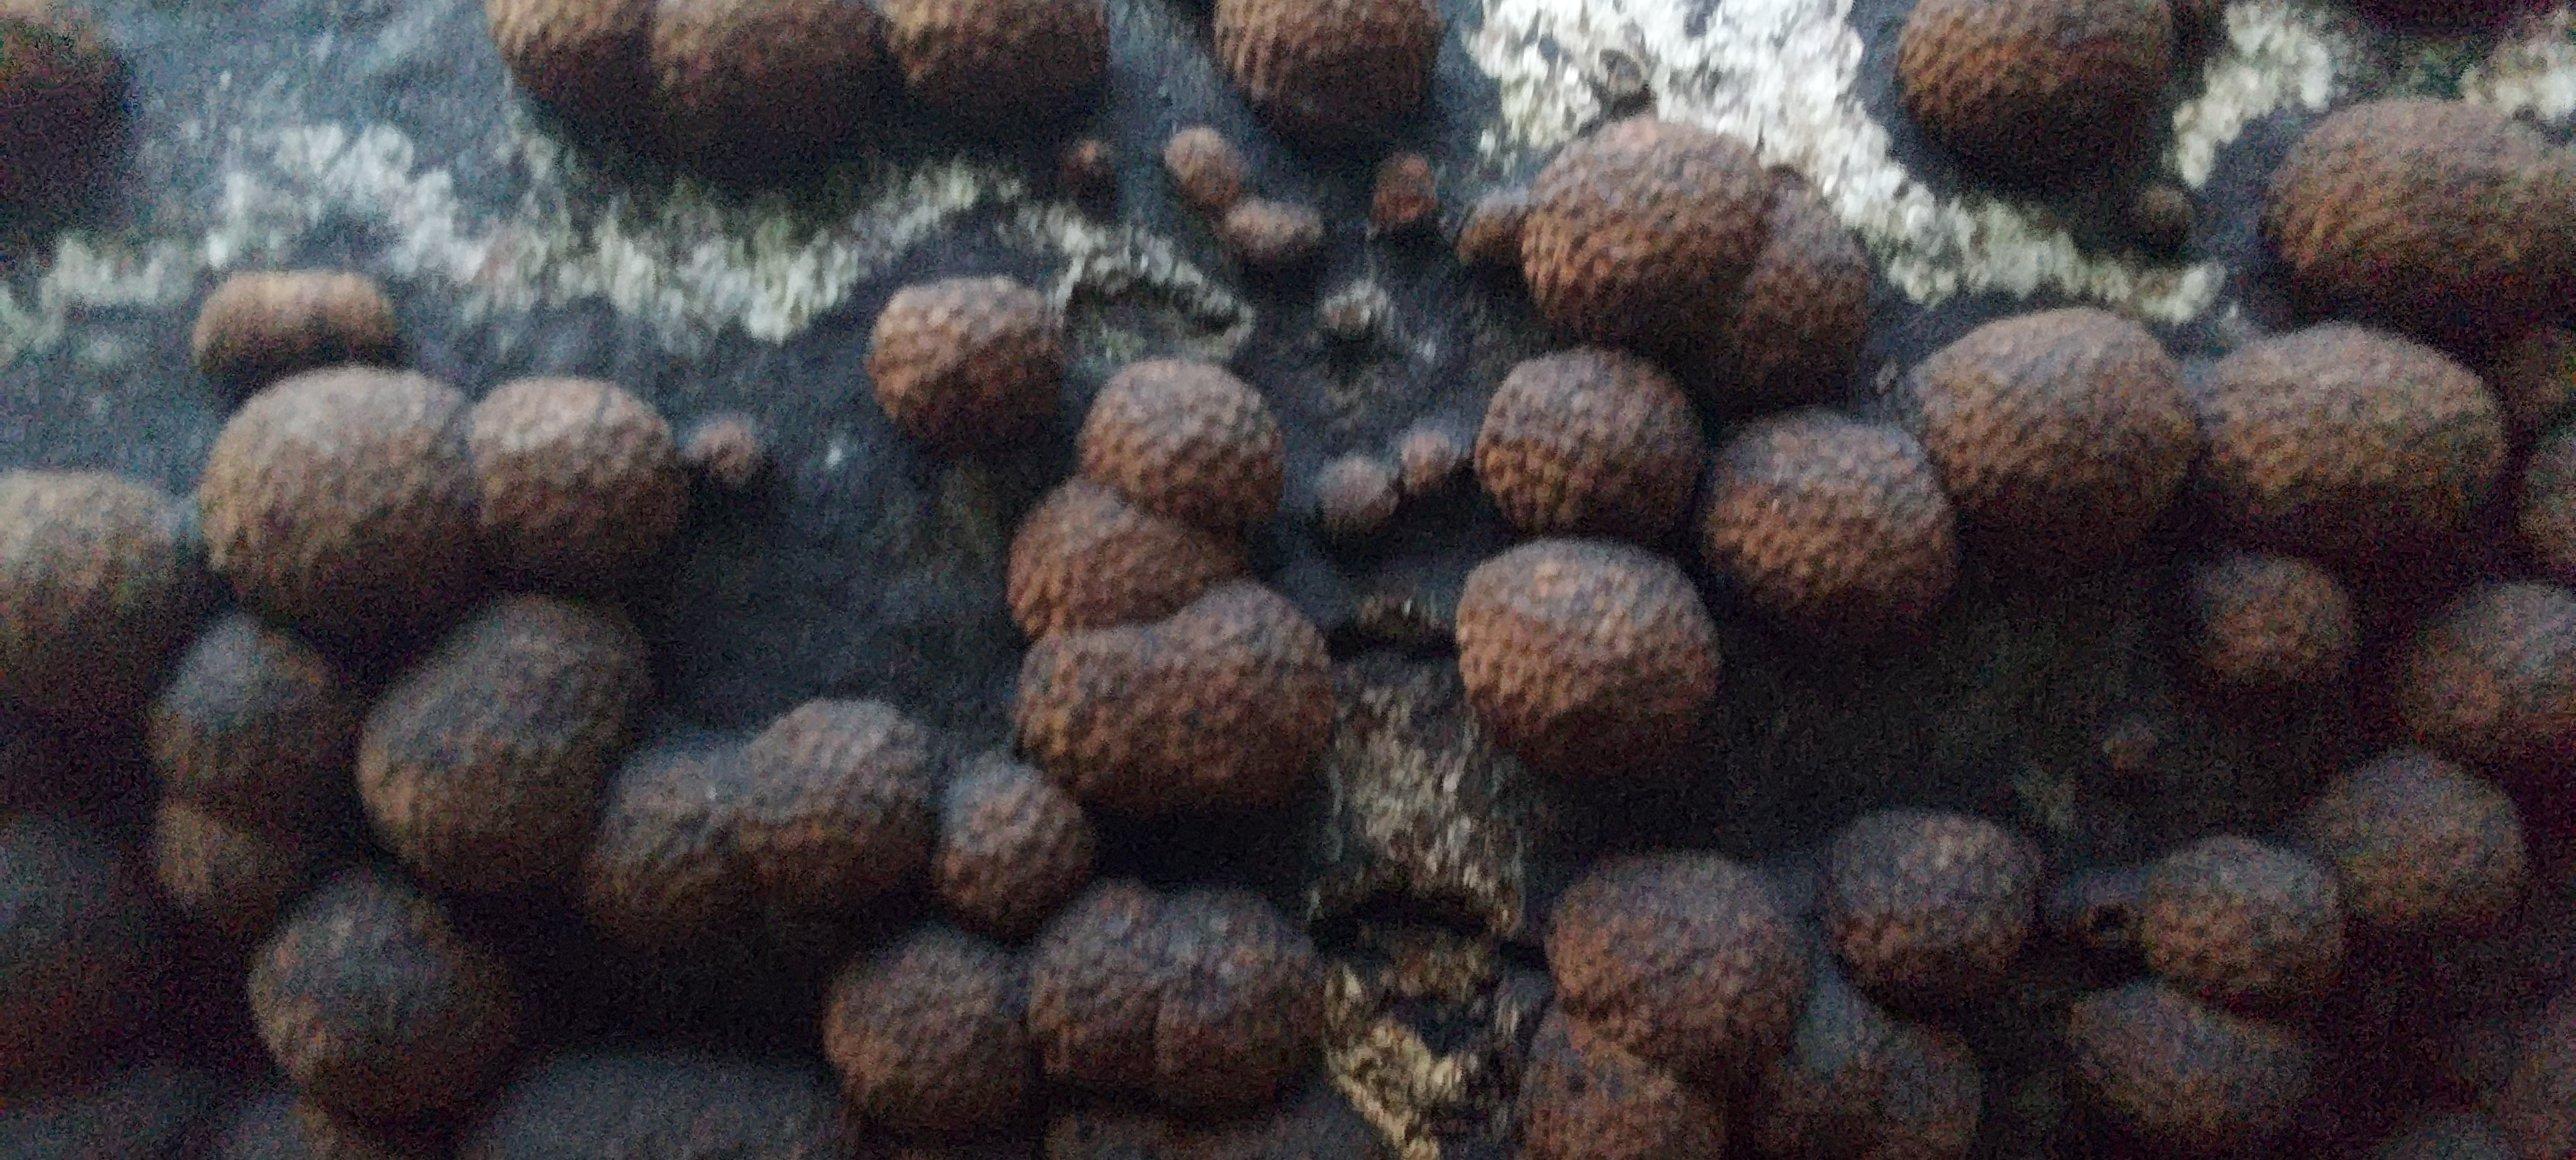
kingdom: Fungi
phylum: Ascomycota
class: Sordariomycetes
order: Xylariales
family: Hypoxylaceae
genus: Hypoxylon
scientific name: Hypoxylon fragiforme
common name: kuljordbær
